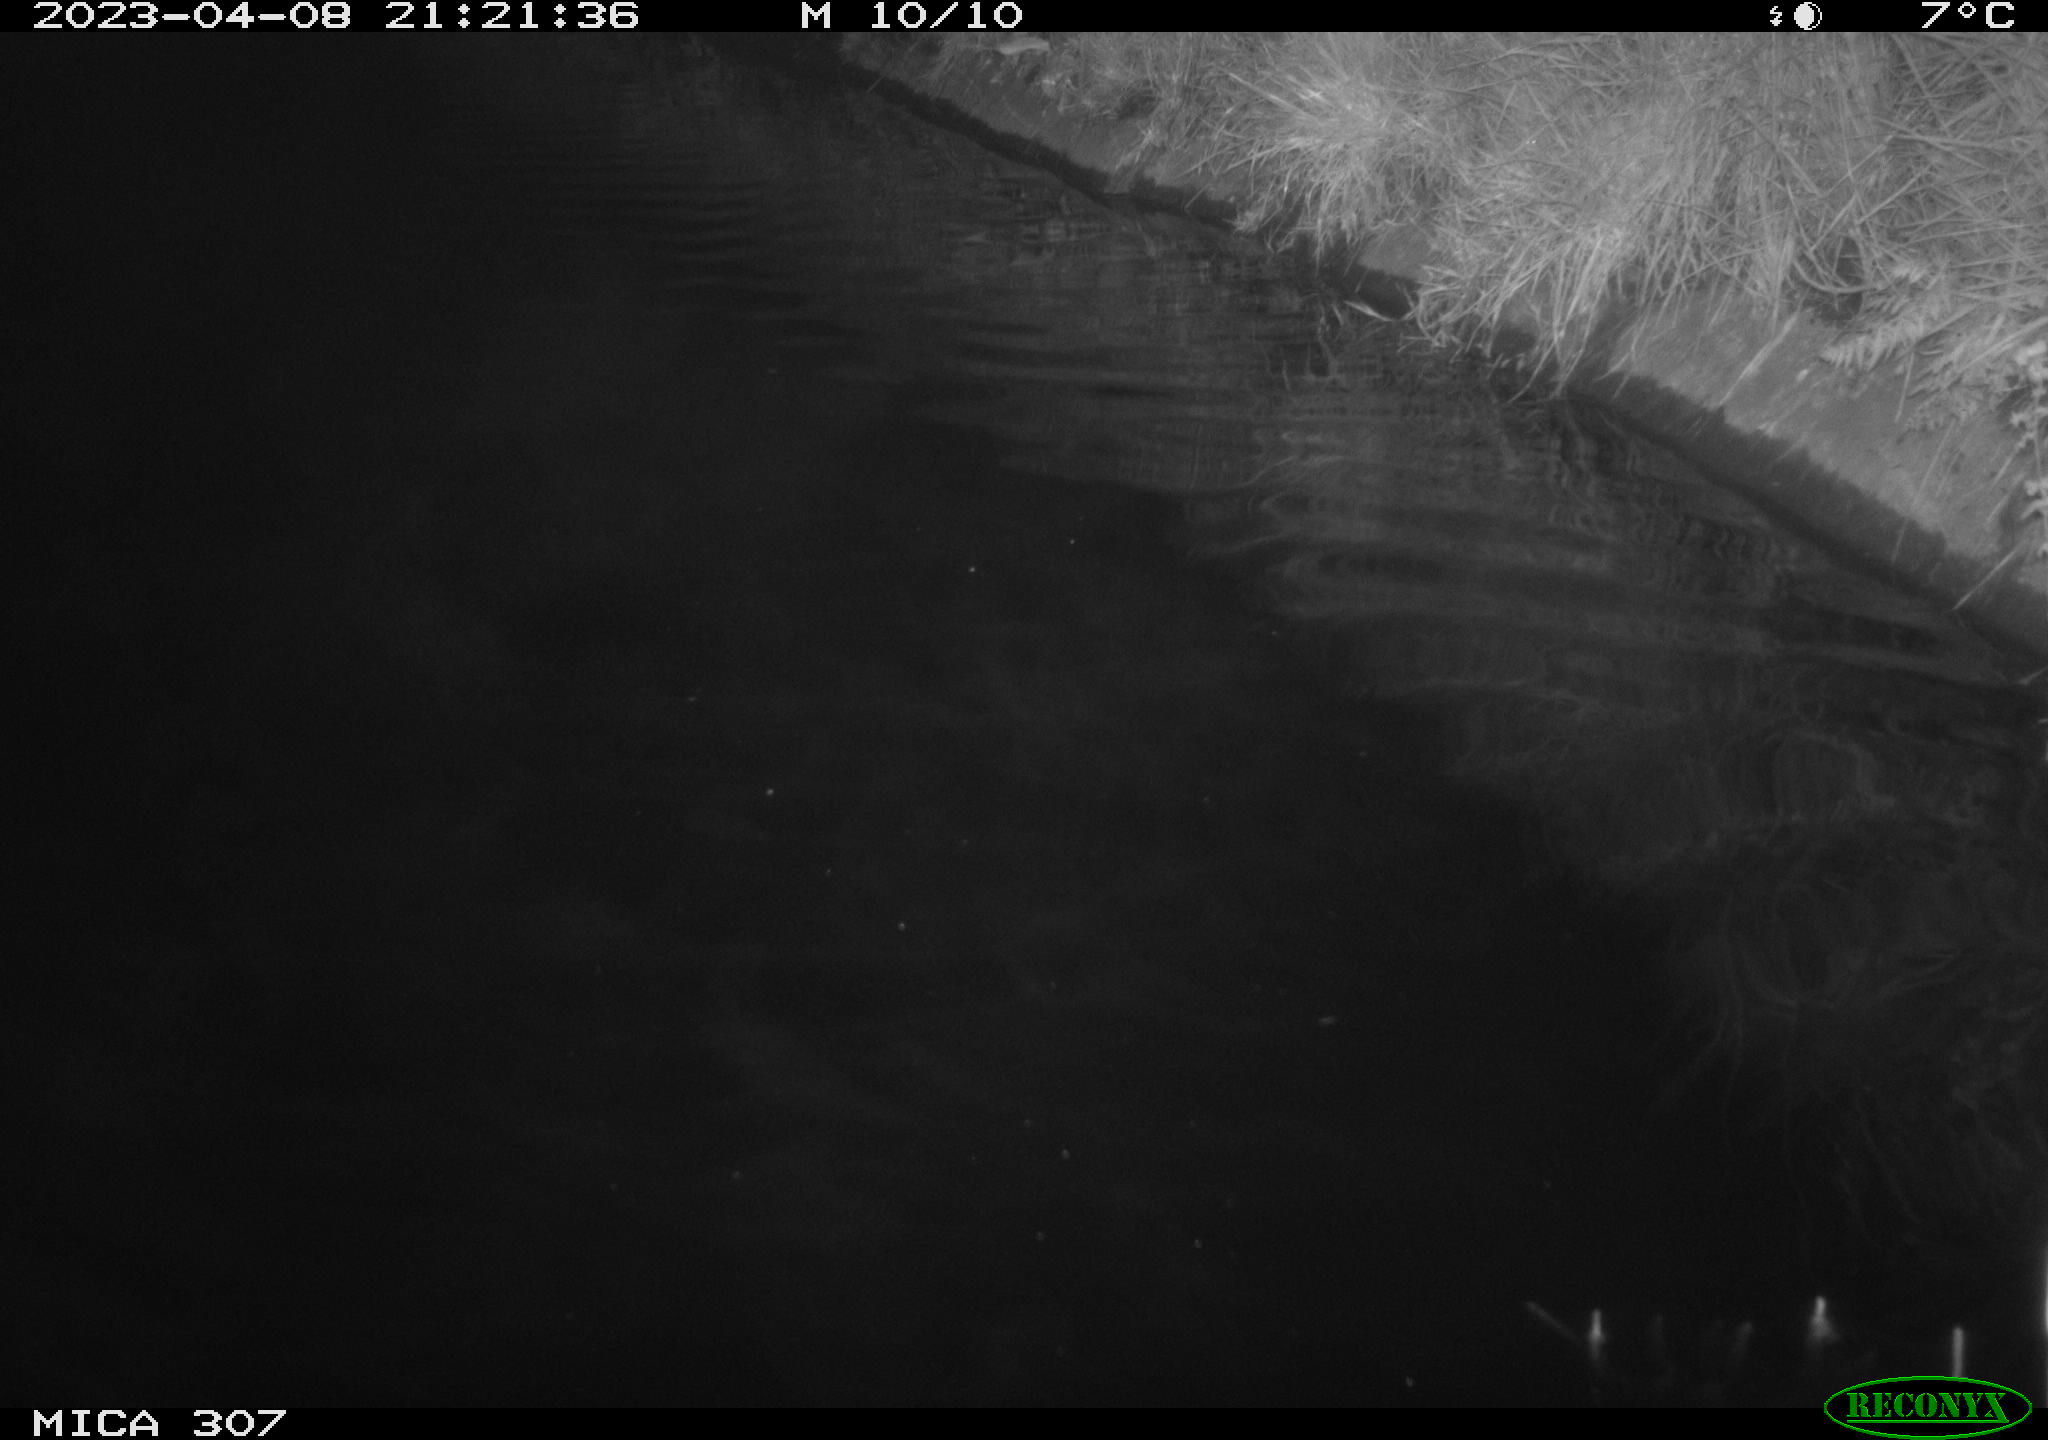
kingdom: Animalia
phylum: Chordata
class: Aves
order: Anseriformes
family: Anatidae
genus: Anas
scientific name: Anas
